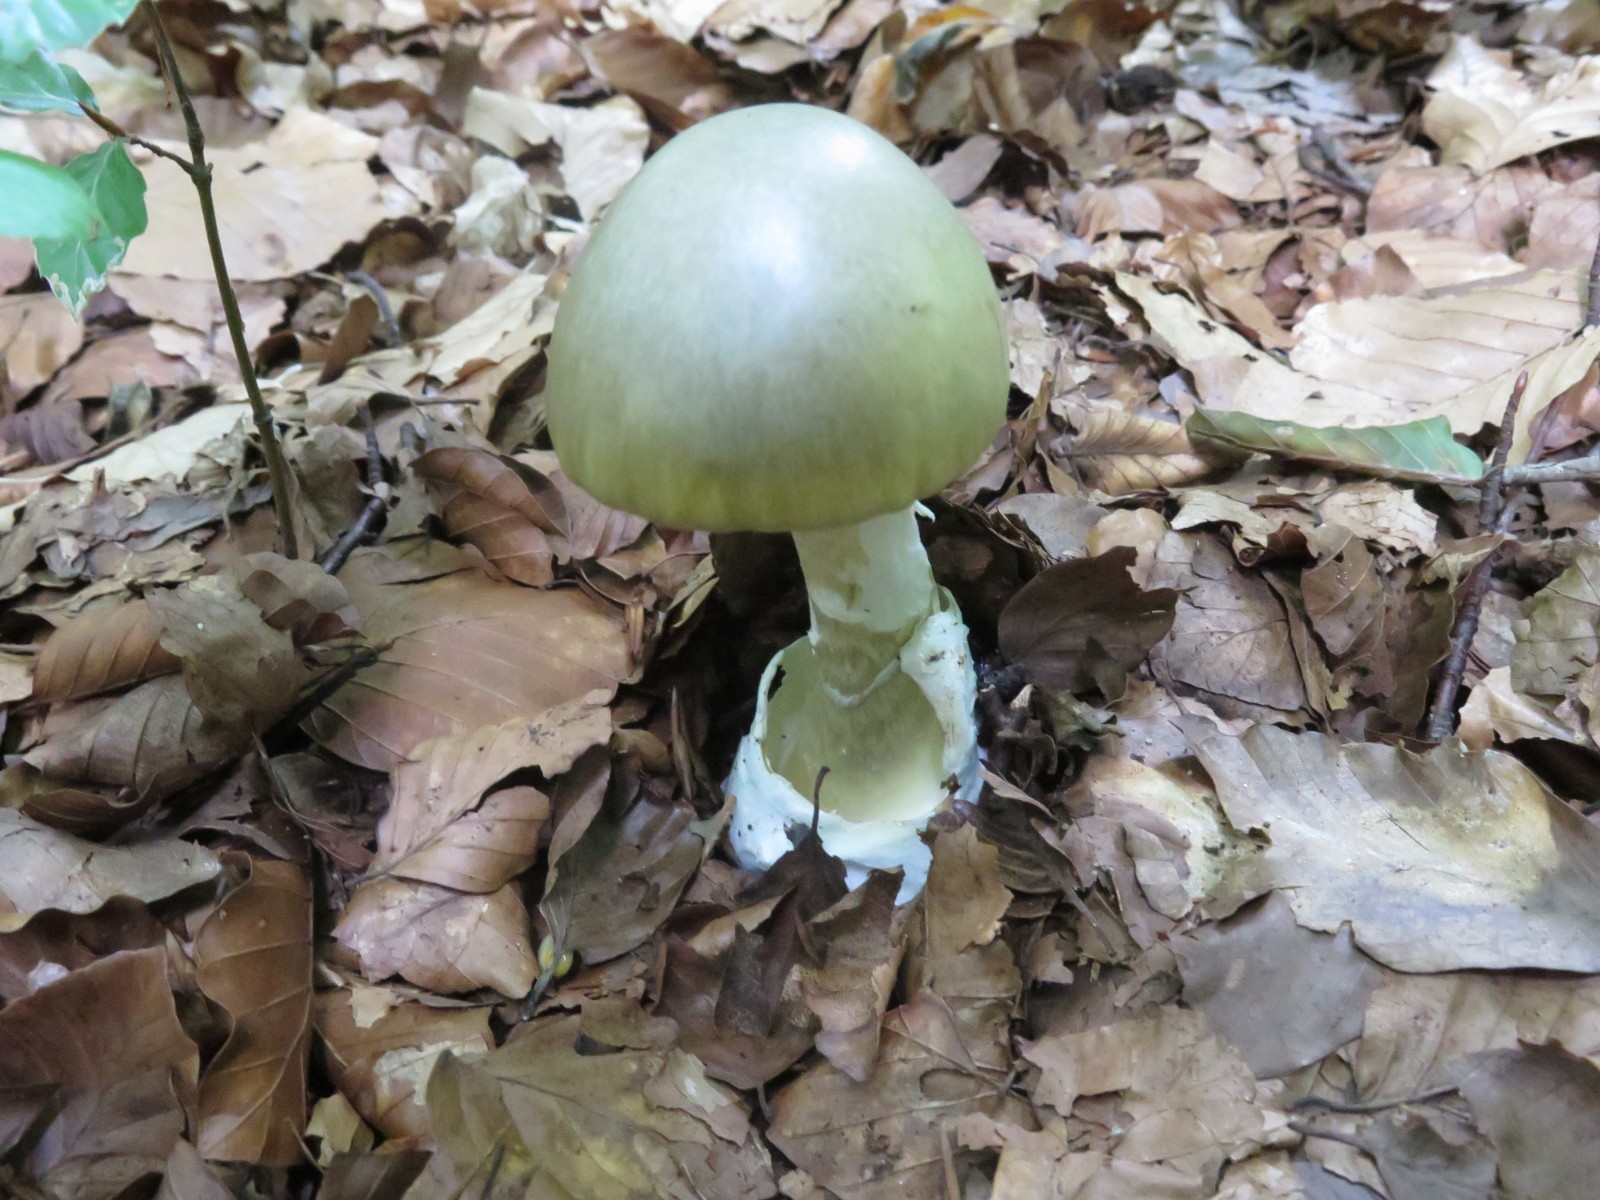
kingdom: Fungi
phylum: Basidiomycota
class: Agaricomycetes
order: Agaricales
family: Amanitaceae
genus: Amanita
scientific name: Amanita phalloides
